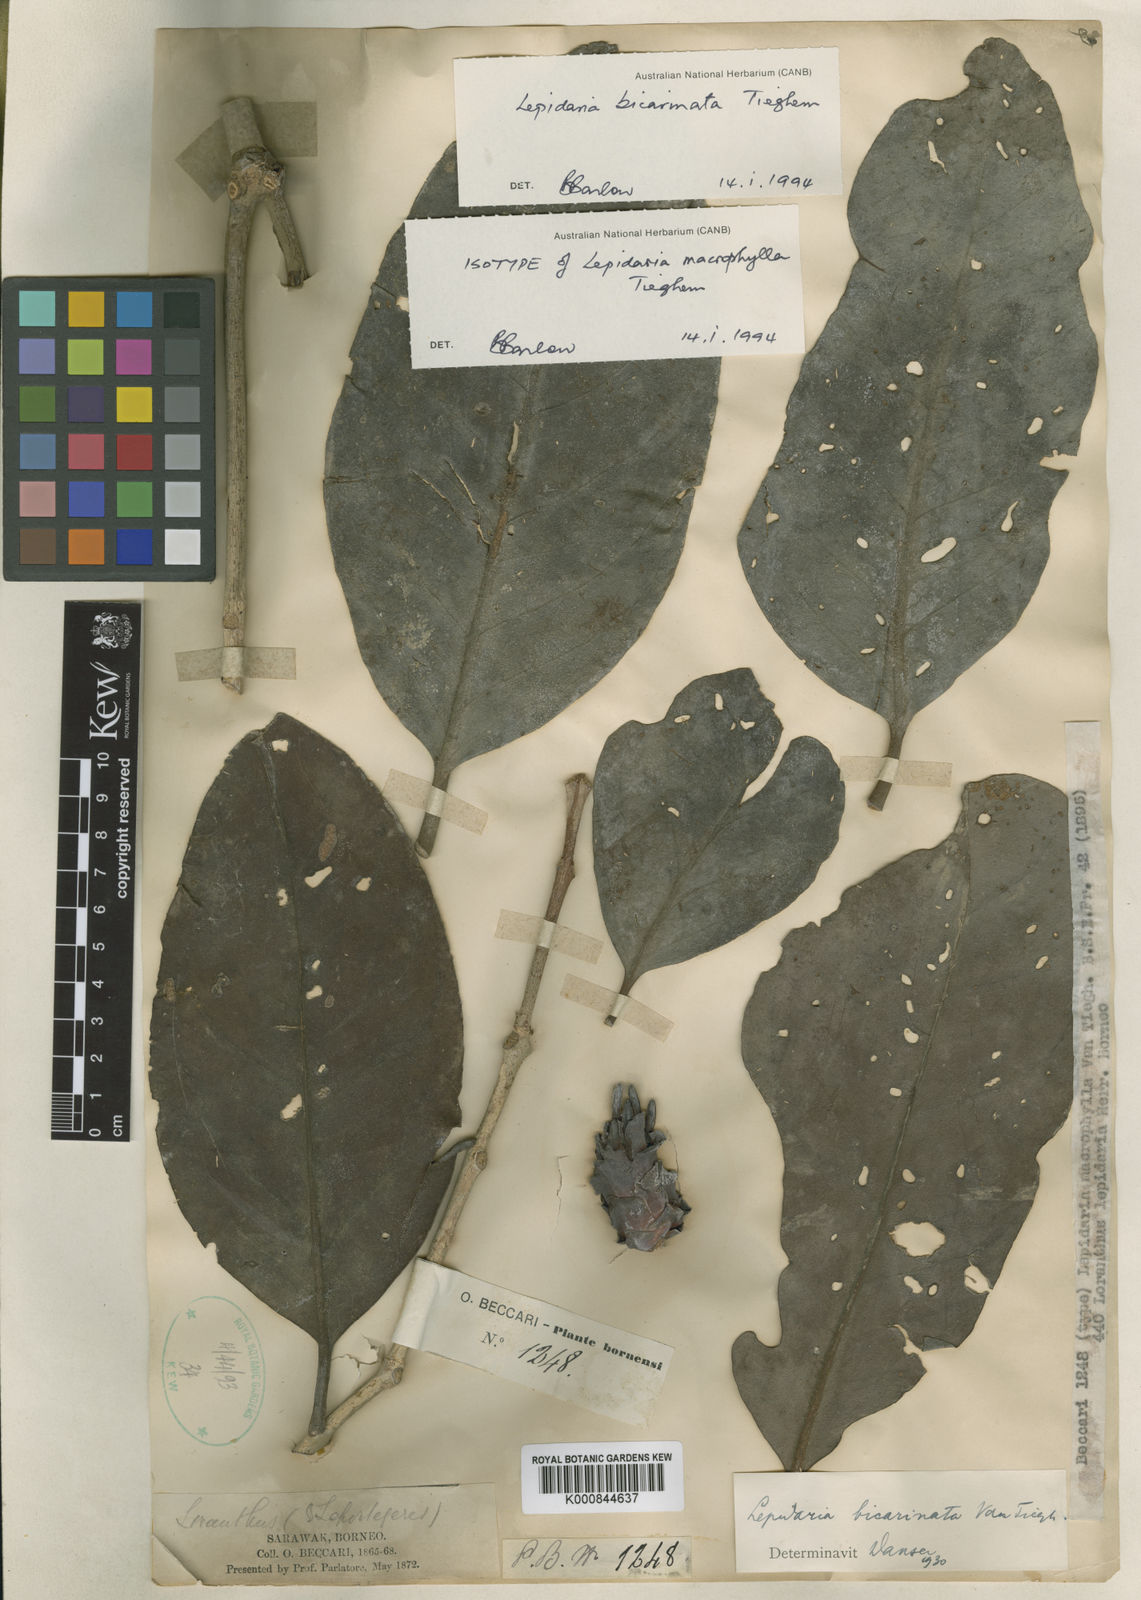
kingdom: Plantae
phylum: Tracheophyta
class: Magnoliopsida
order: Santalales
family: Loranthaceae
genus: Lepidaria
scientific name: Lepidaria bicarinata
